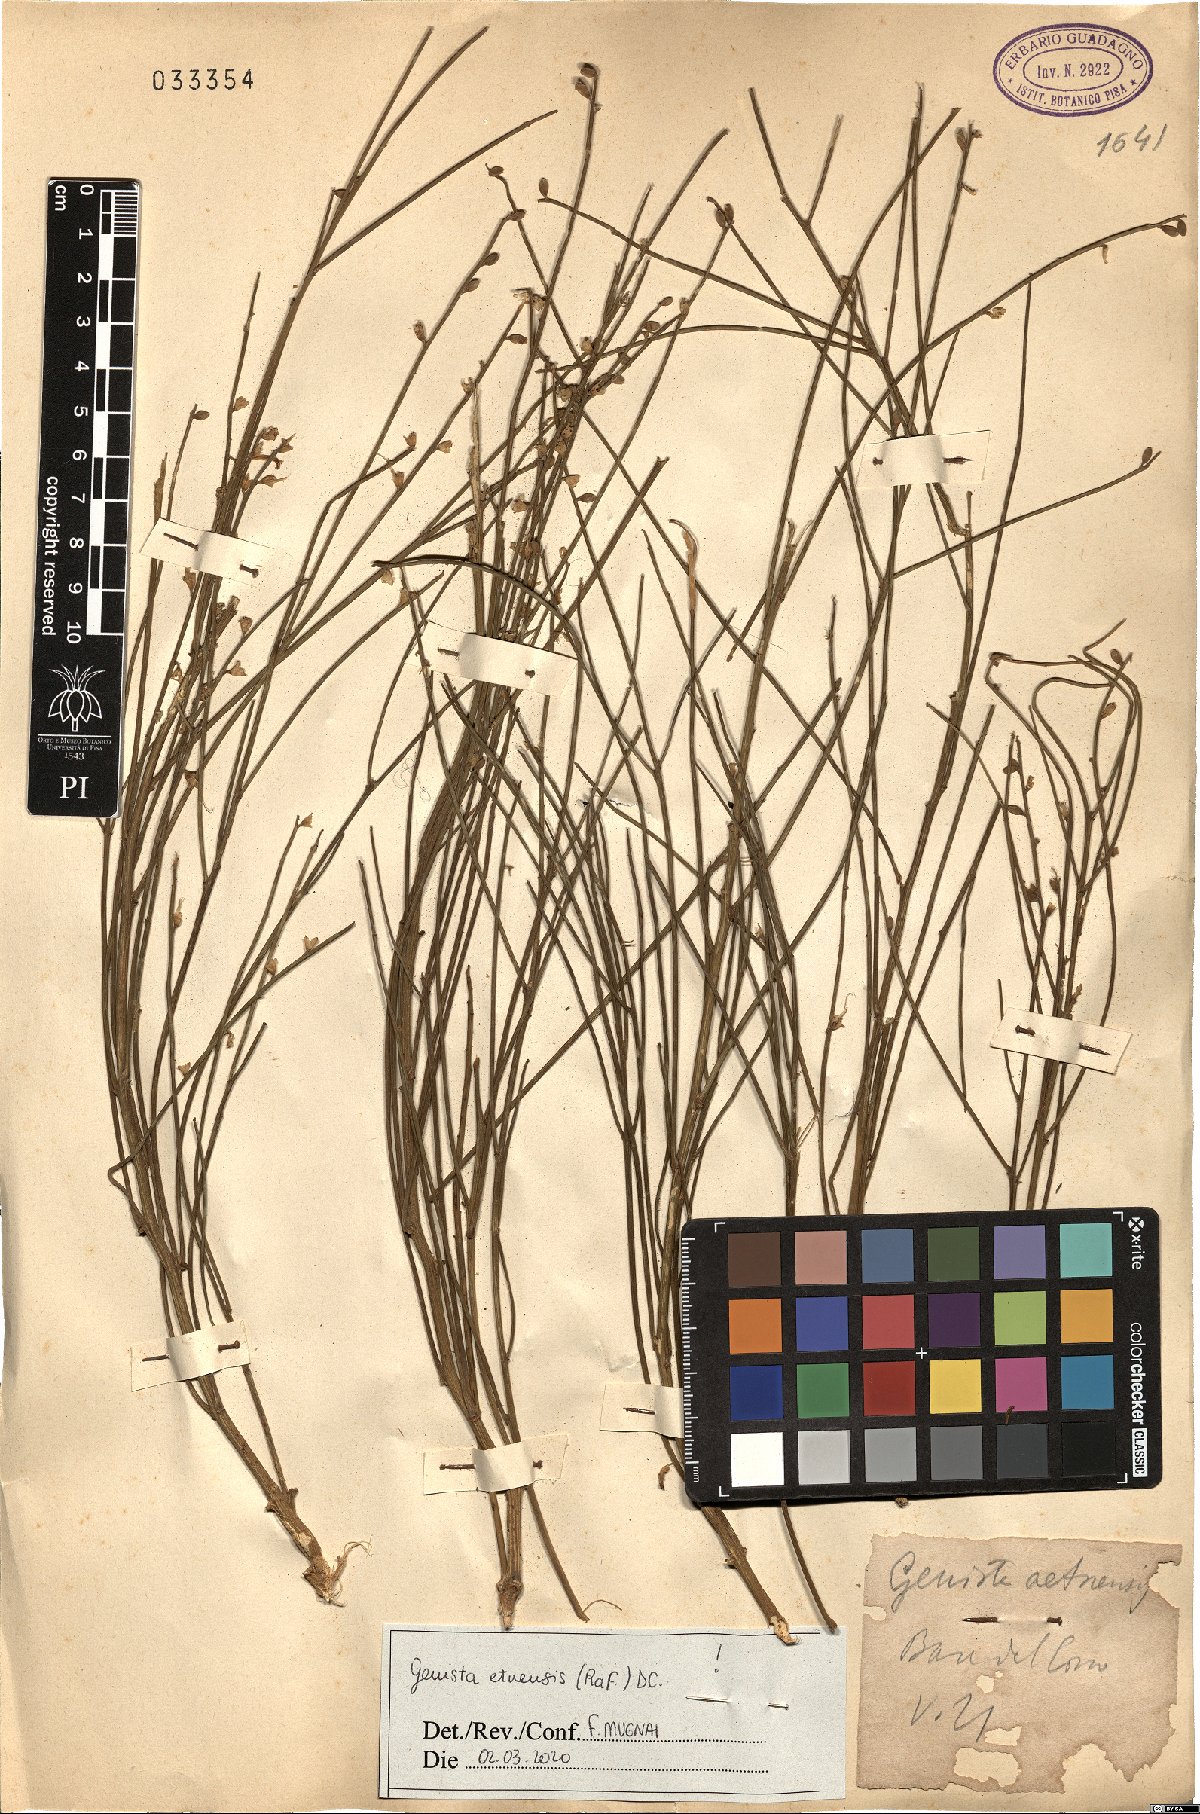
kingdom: Plantae
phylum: Tracheophyta
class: Magnoliopsida
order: Fabales
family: Fabaceae
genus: Genista
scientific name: Genista aetnensis
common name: Mount etna broom
